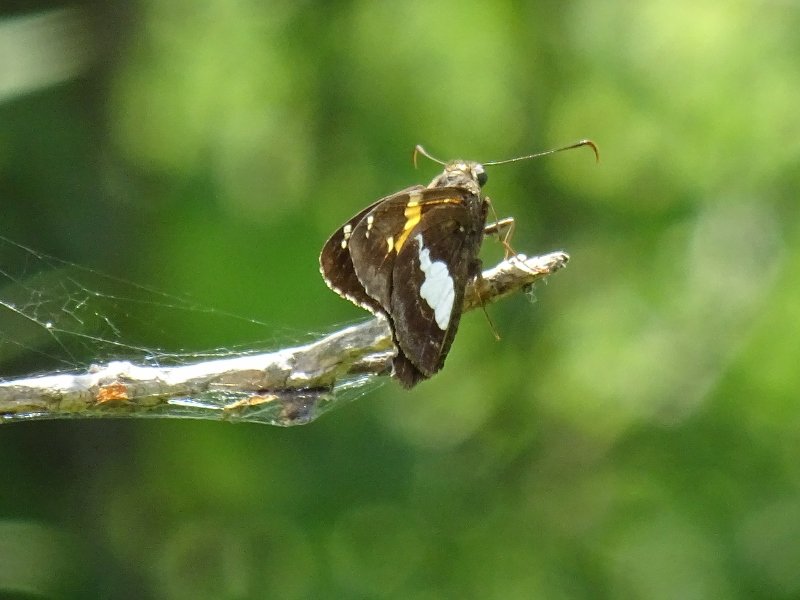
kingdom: Animalia
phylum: Arthropoda
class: Insecta
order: Lepidoptera
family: Hesperiidae
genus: Epargyreus
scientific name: Epargyreus clarus
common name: Silver-spotted Skipper
